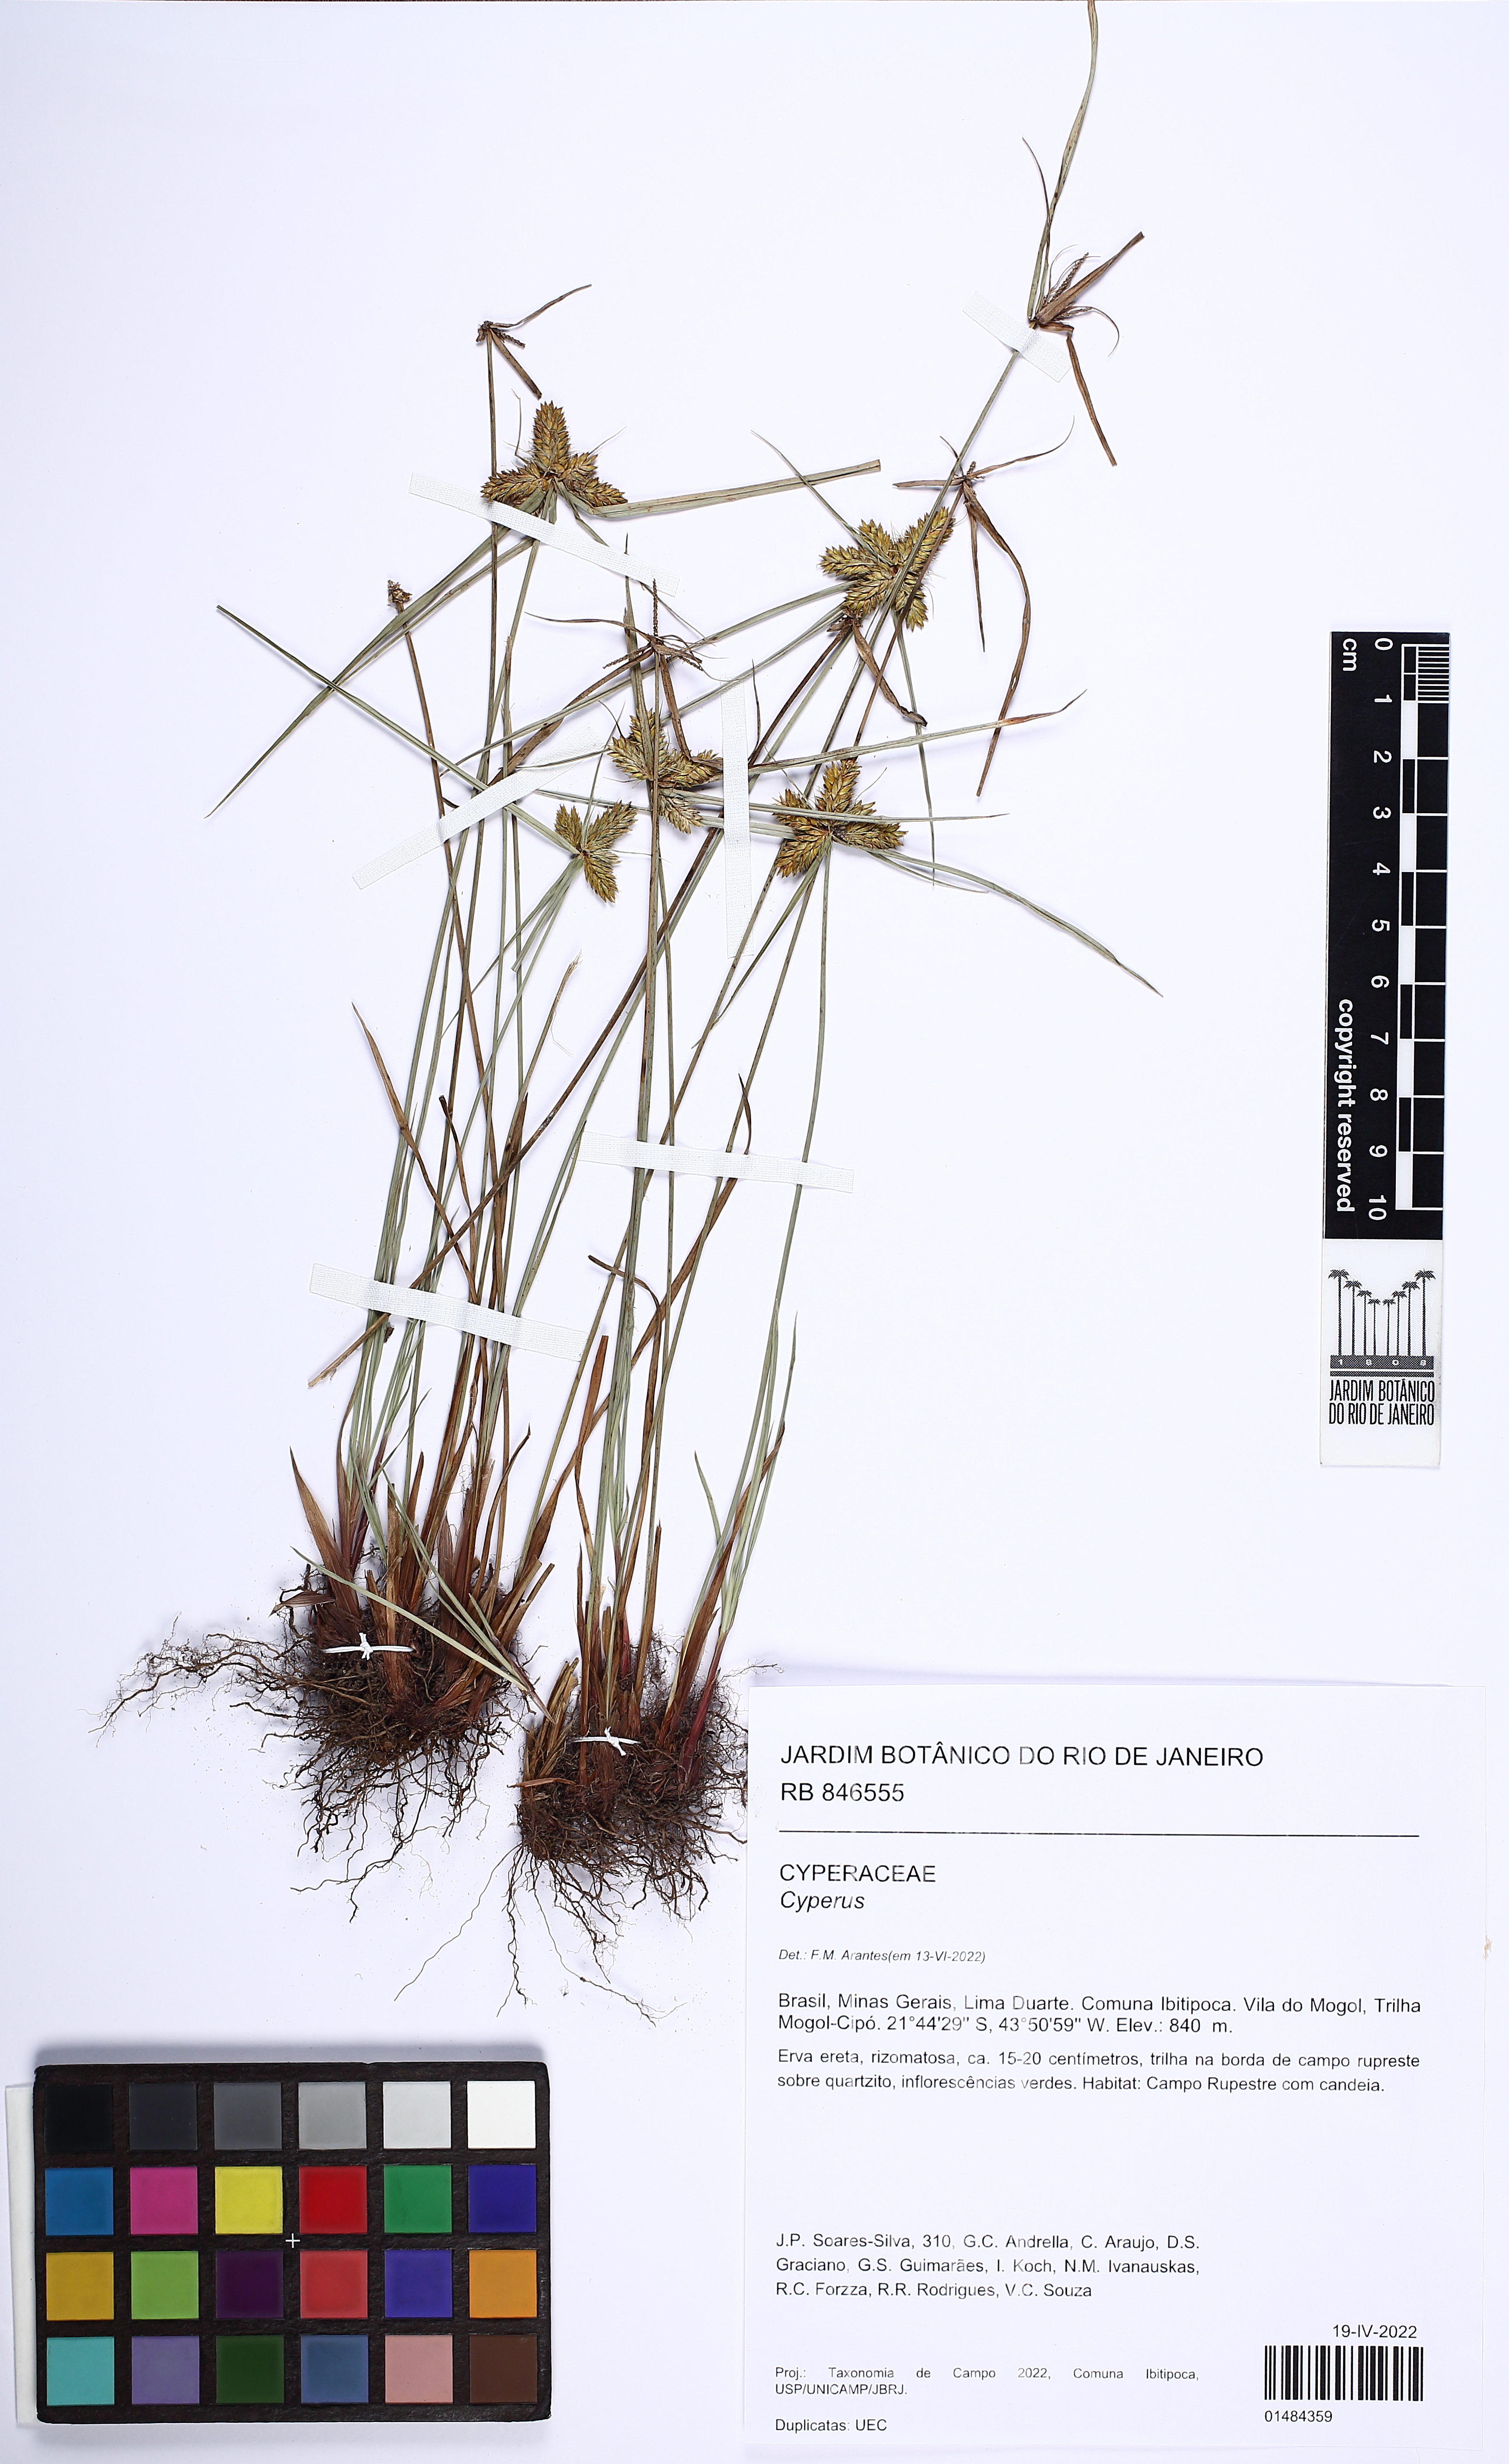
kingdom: Plantae
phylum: Tracheophyta
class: Liliopsida
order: Poales
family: Cyperaceae
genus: Cyperus
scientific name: Cyperus
